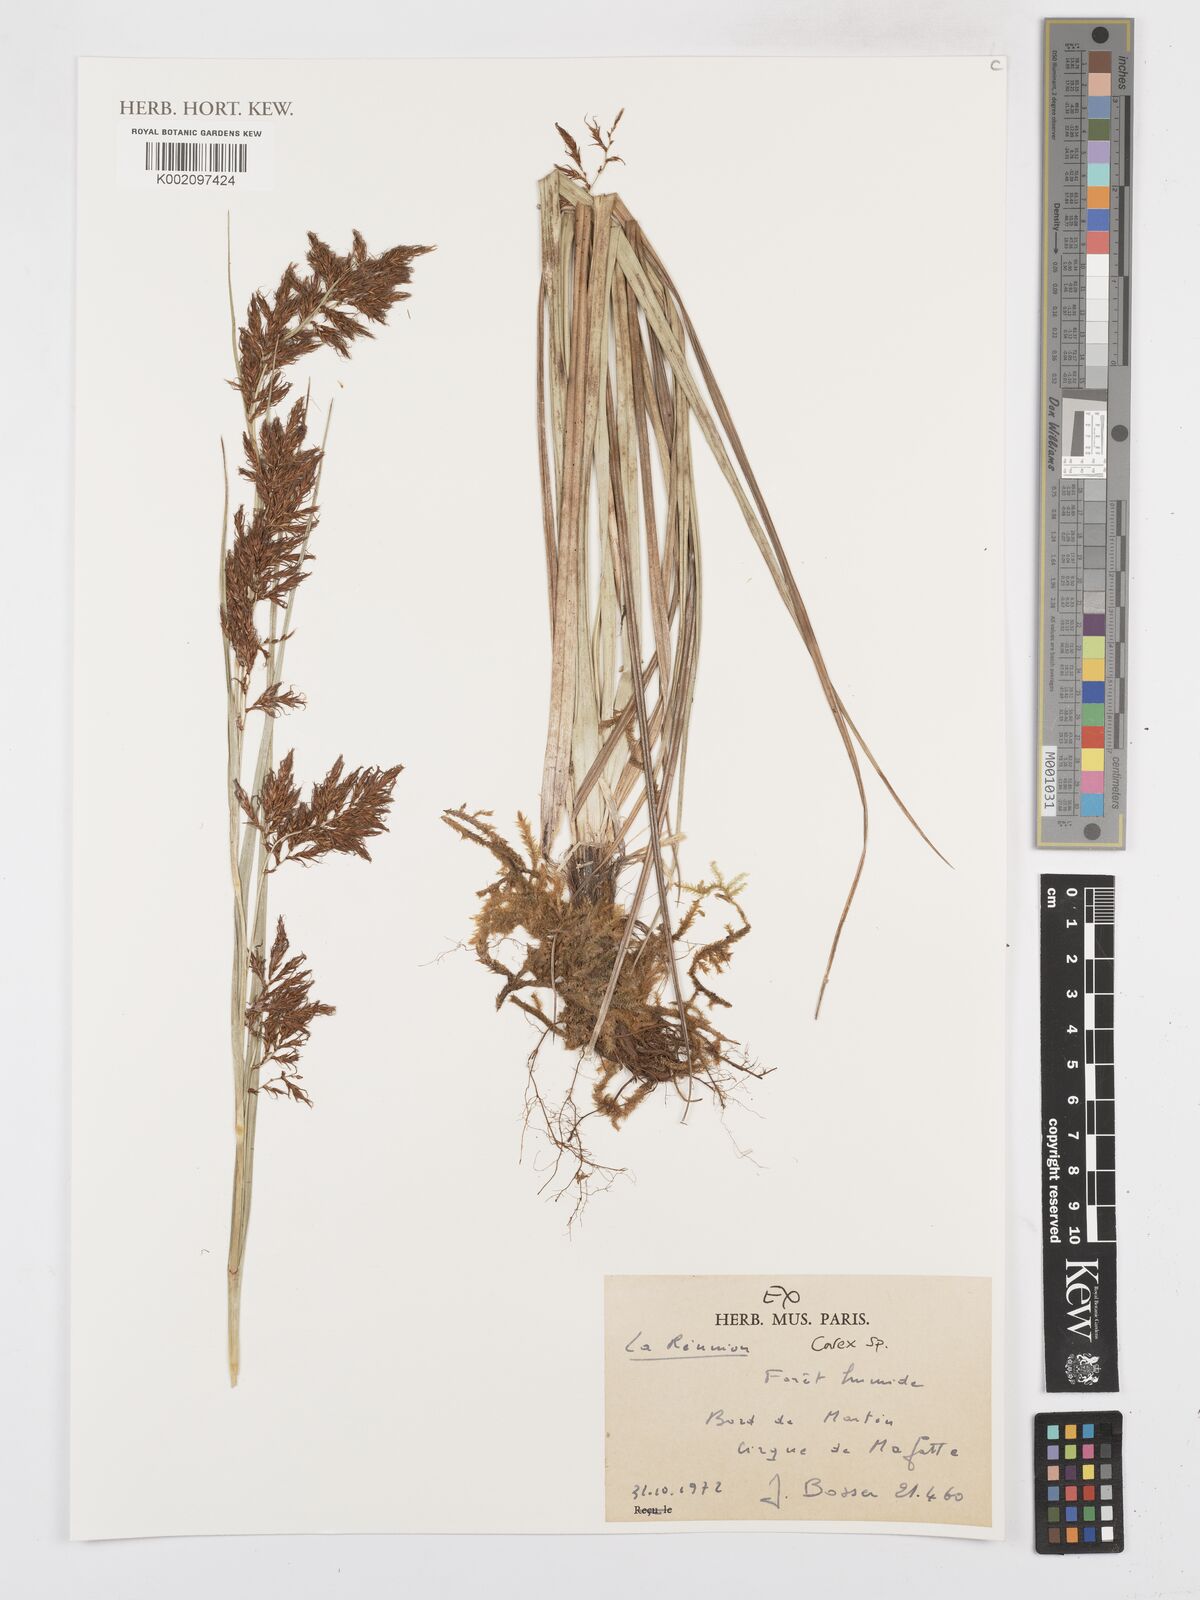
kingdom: Plantae
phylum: Tracheophyta
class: Liliopsida
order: Poales
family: Cyperaceae
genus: Carex
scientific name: Carex
